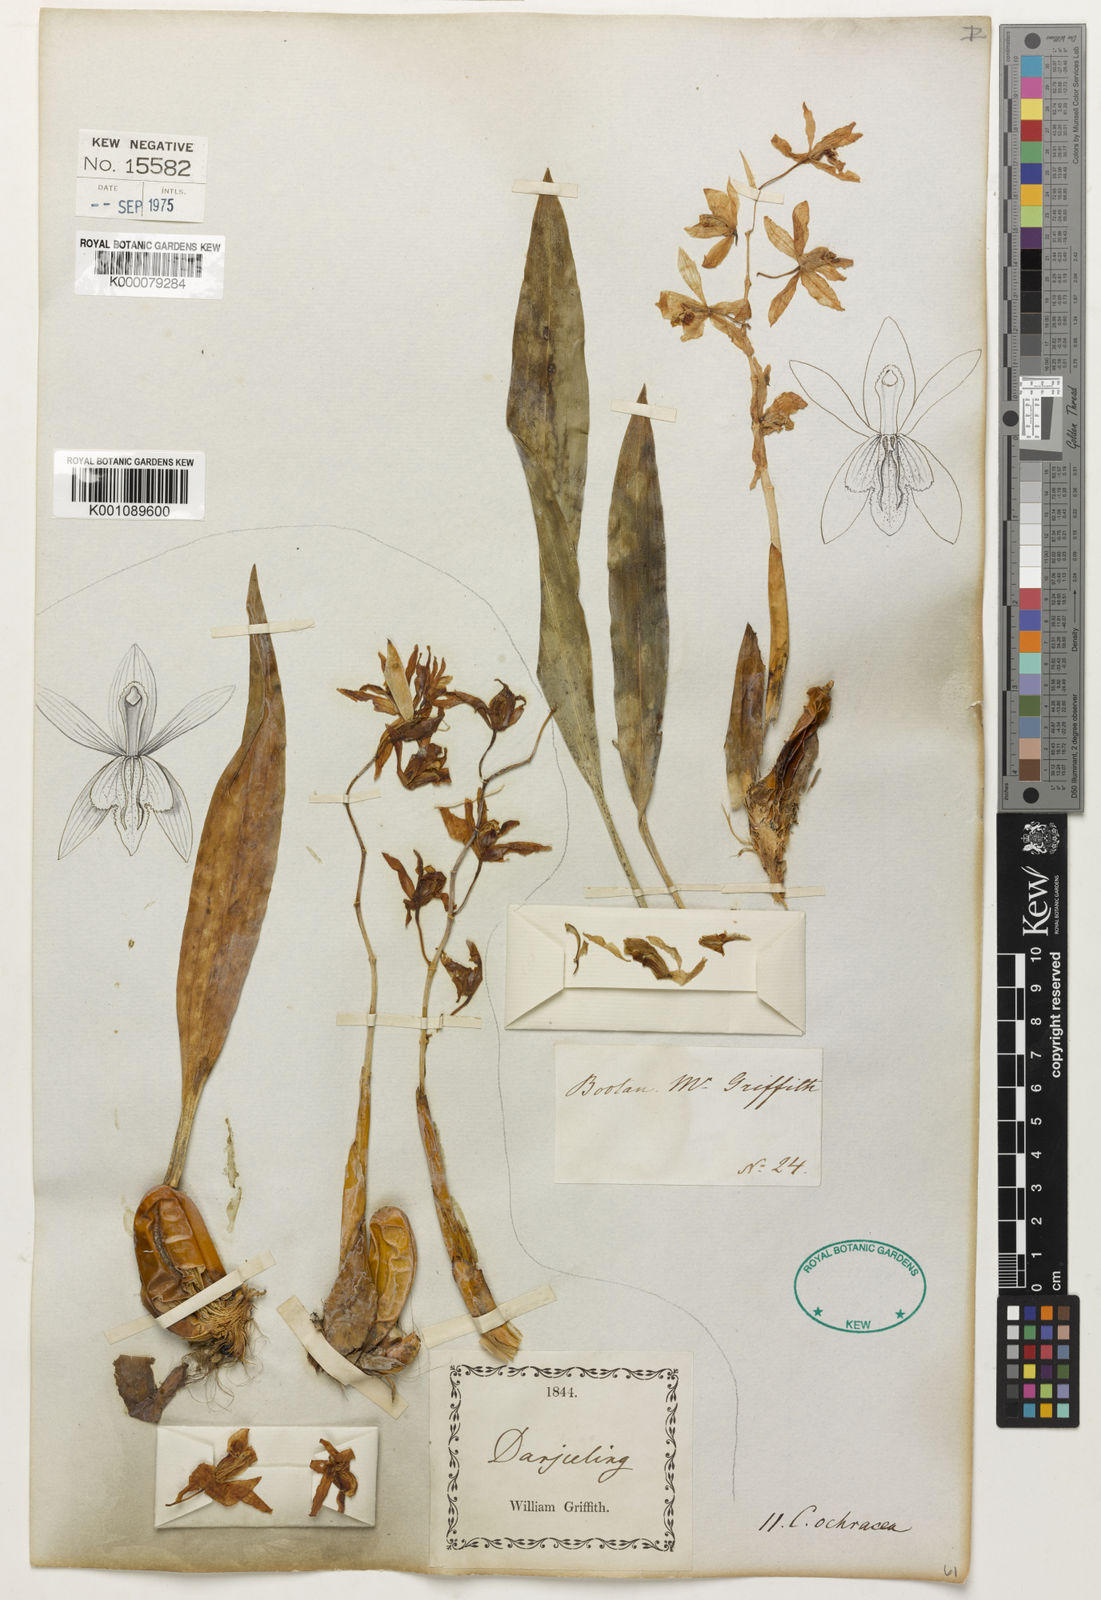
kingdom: Plantae
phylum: Tracheophyta
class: Liliopsida
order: Asparagales
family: Orchidaceae
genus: Coelogyne
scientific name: Coelogyne nitida
